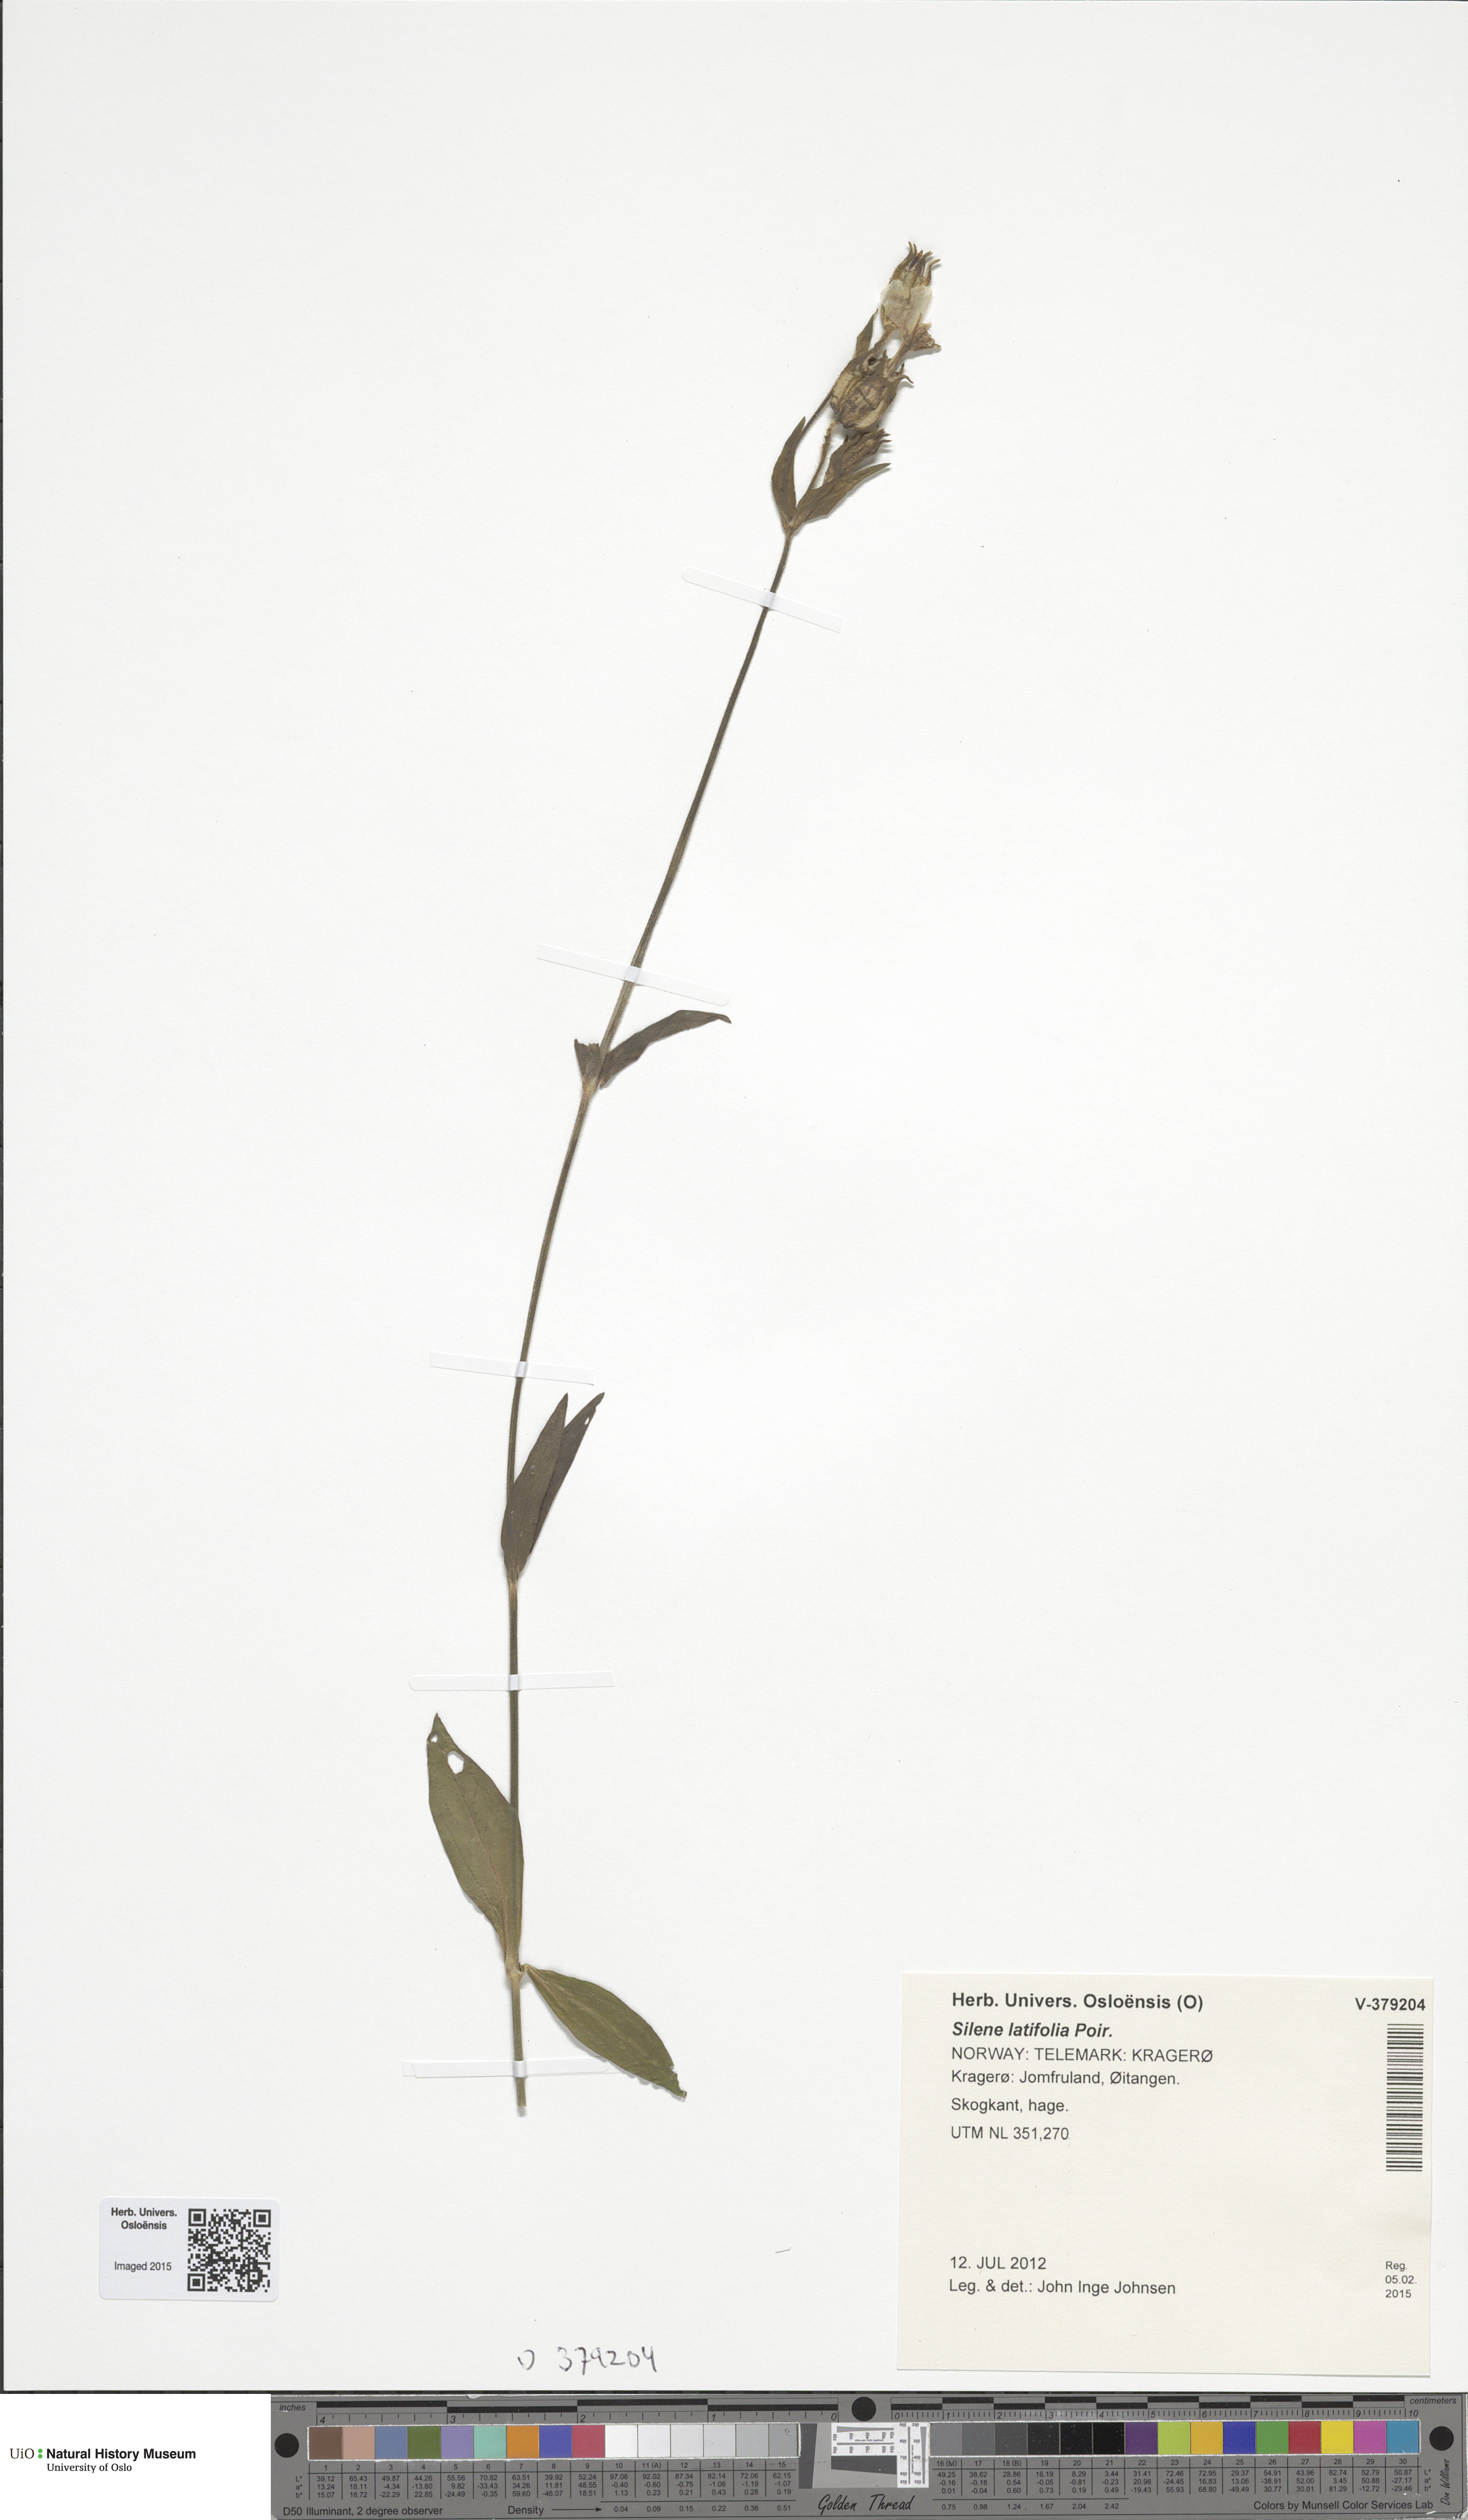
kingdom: Plantae
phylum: Tracheophyta
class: Magnoliopsida
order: Caryophyllales
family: Caryophyllaceae
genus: Silene
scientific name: Silene vulgaris
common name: Bladder campion
